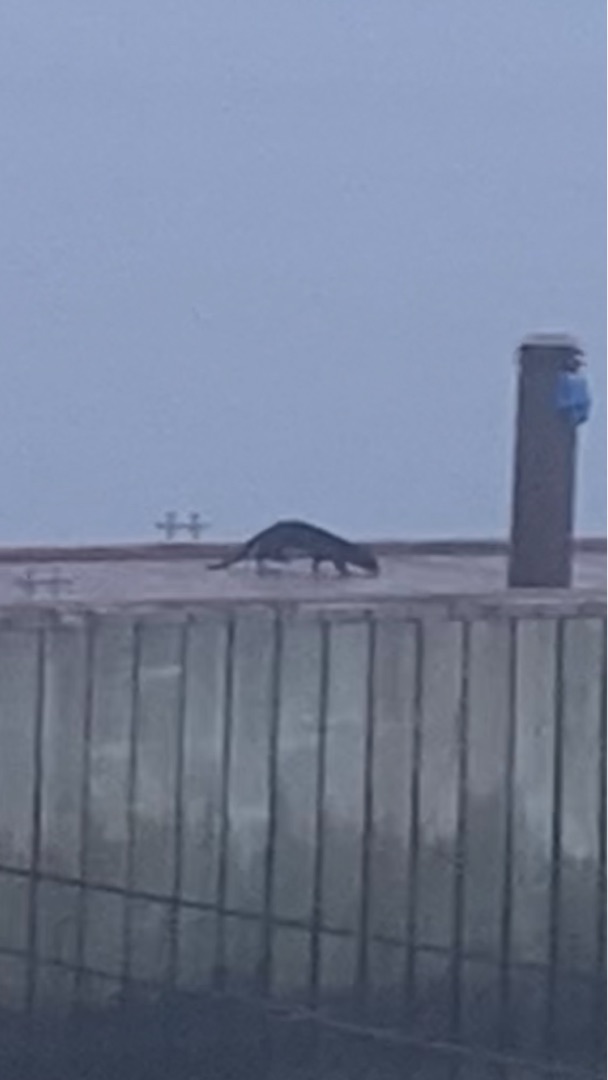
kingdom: Animalia
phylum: Chordata
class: Mammalia
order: Carnivora
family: Mustelidae
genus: Lutra
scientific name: Lutra lutra
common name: Odder
